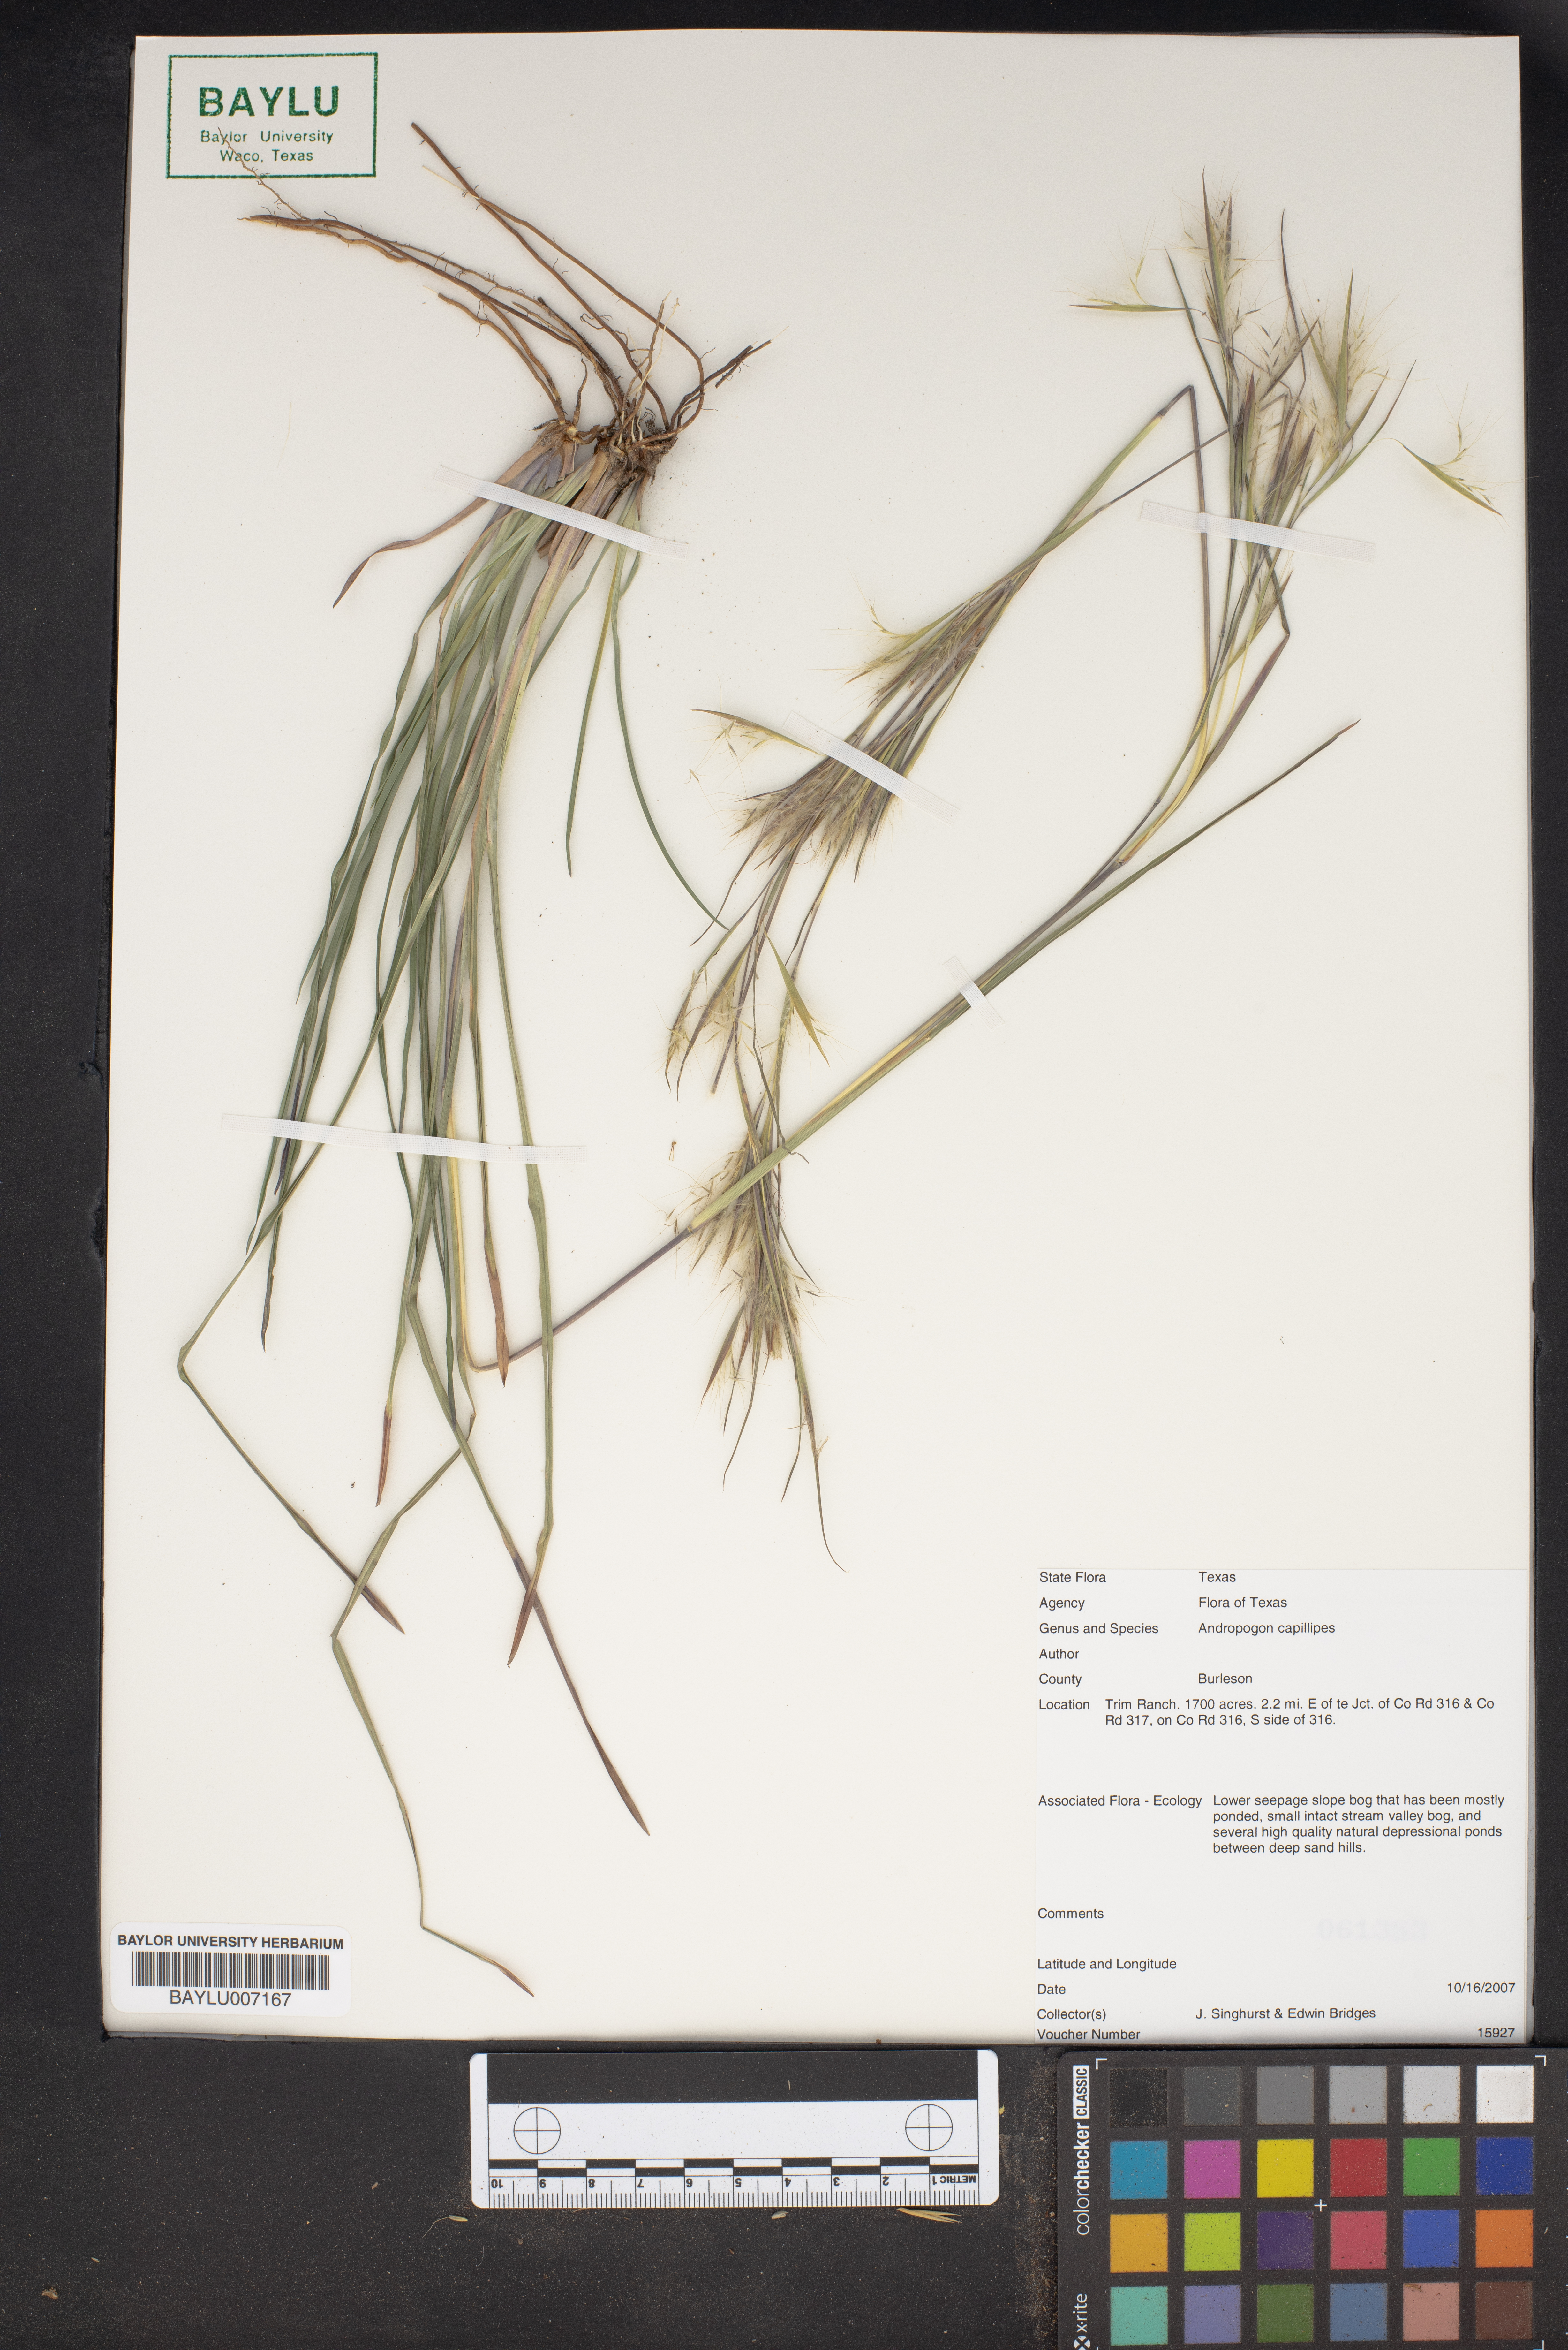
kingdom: Plantae
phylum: Tracheophyta
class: Liliopsida
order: Poales
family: Poaceae
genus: Andropogon
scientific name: Andropogon capillipes
